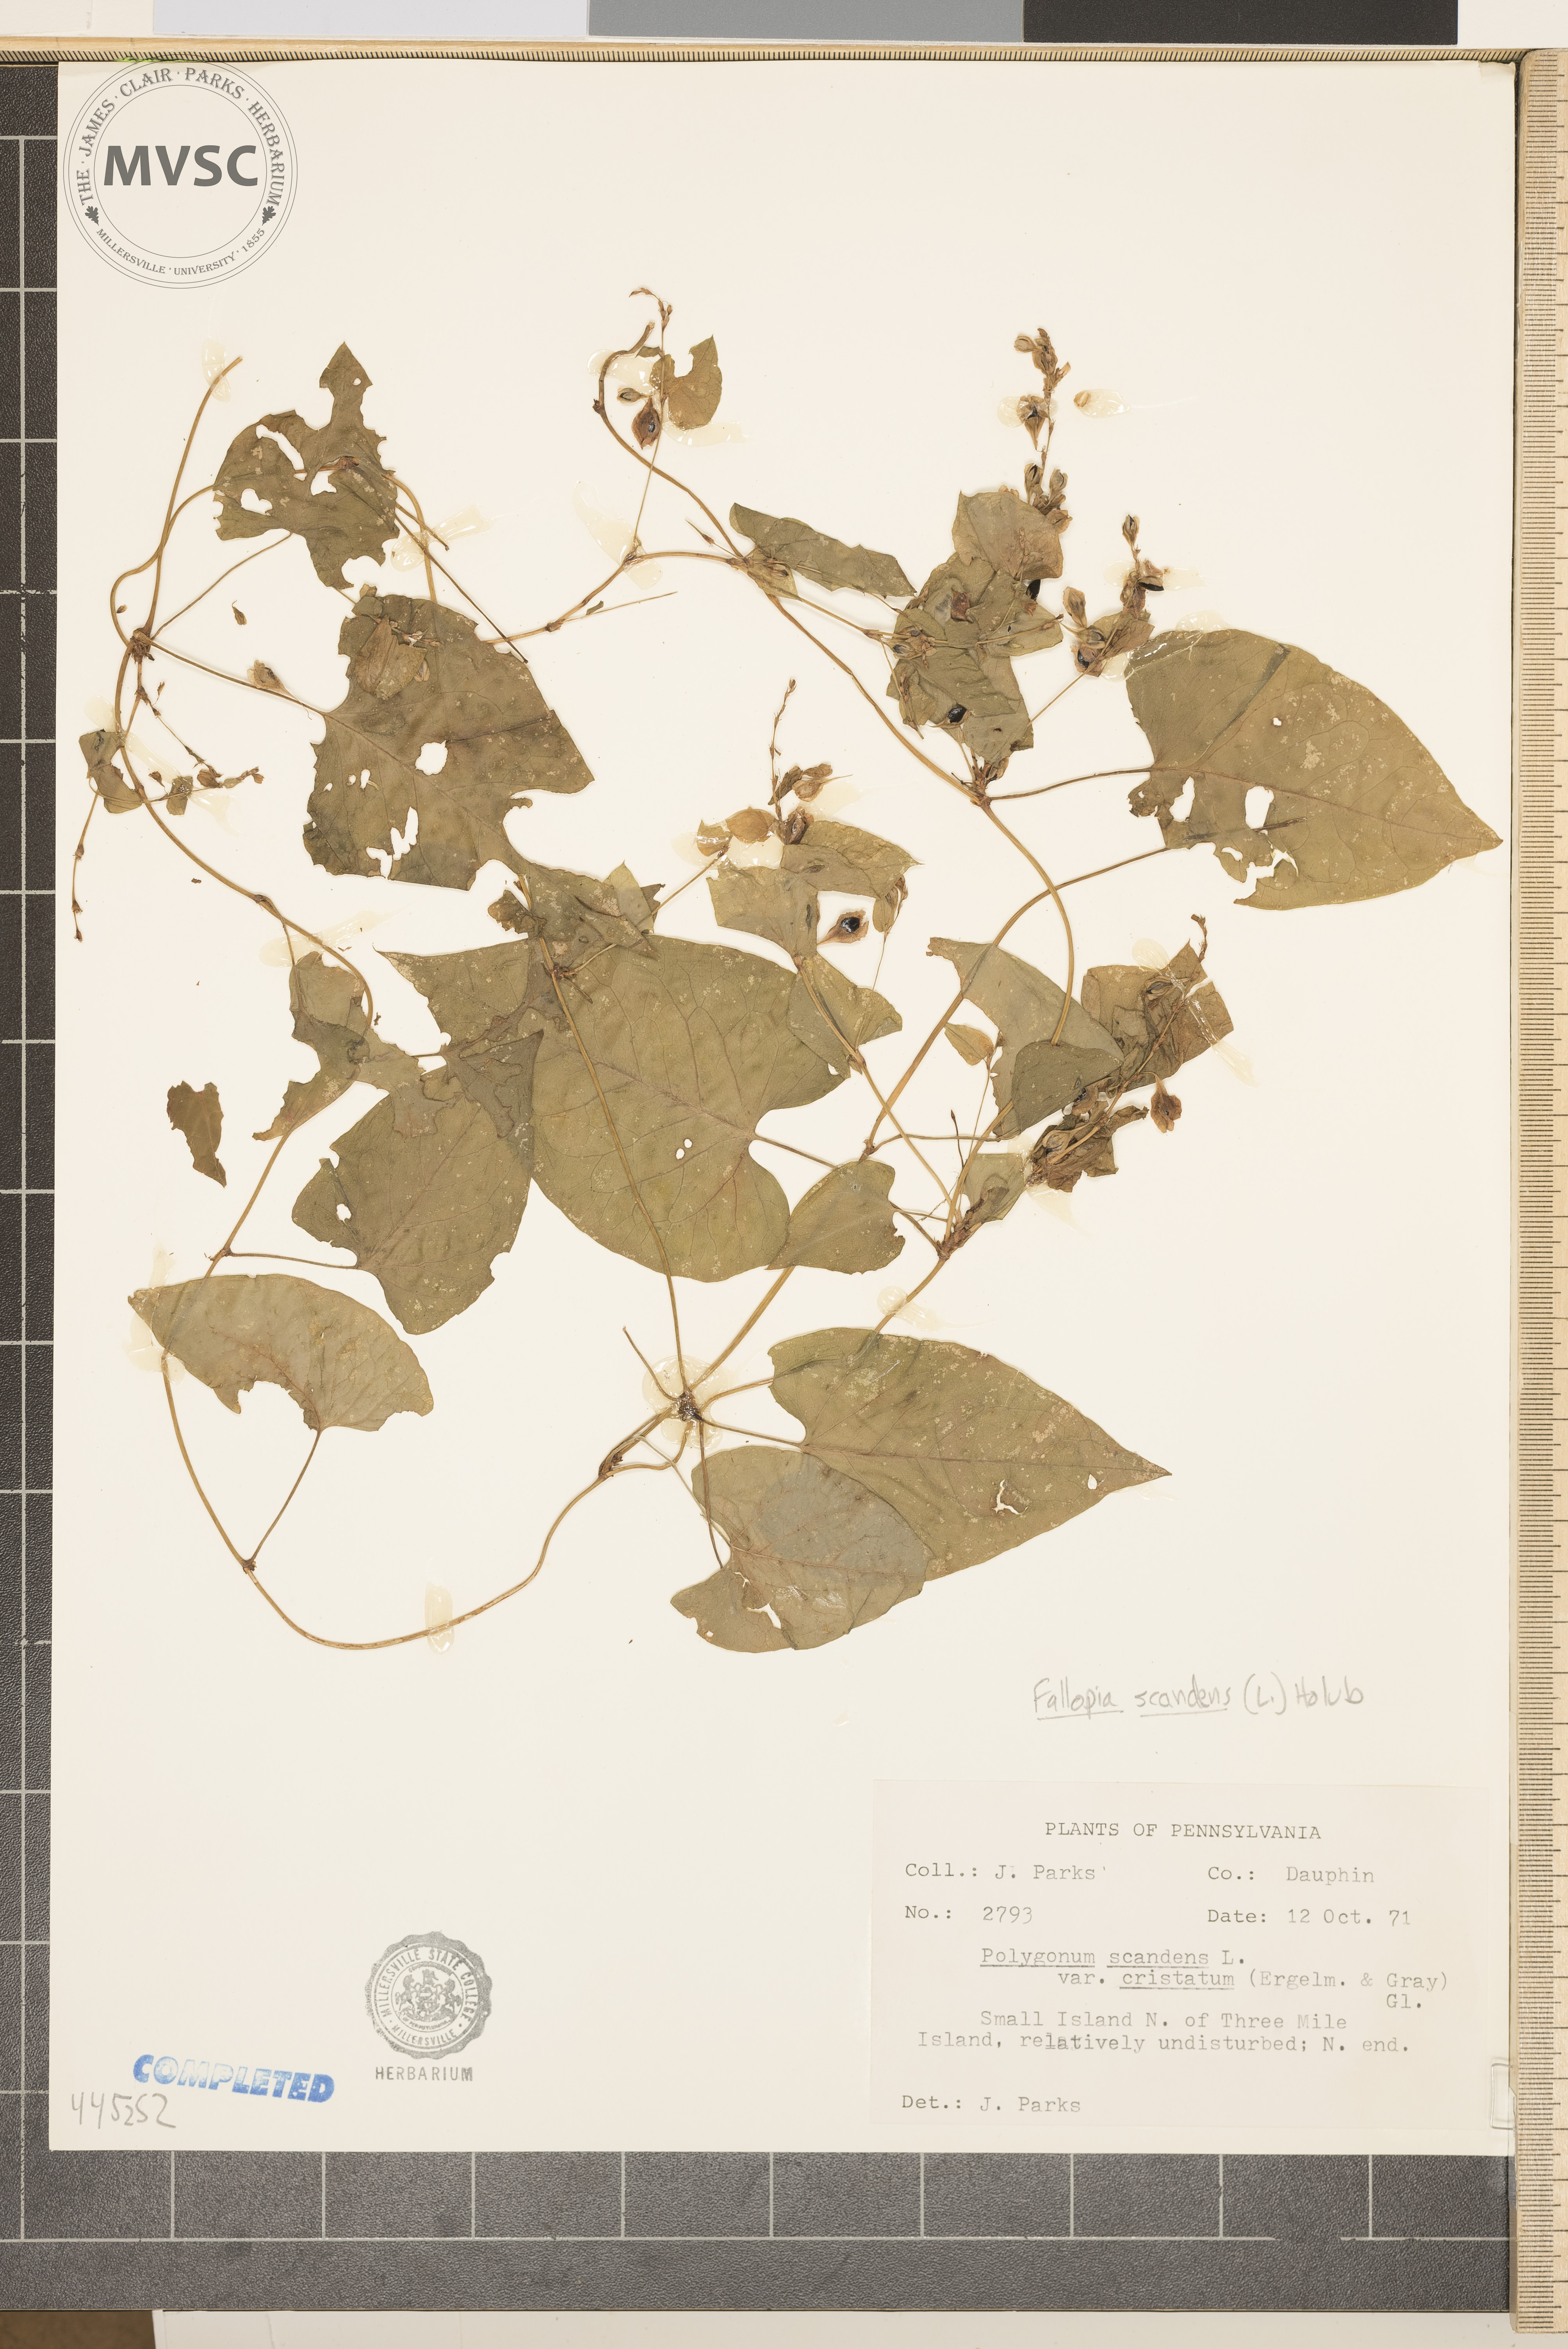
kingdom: Plantae
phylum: Tracheophyta
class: Magnoliopsida
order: Caryophyllales
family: Polygonaceae
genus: Fallopia
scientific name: Fallopia scandens
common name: Climbing false buckwheat
